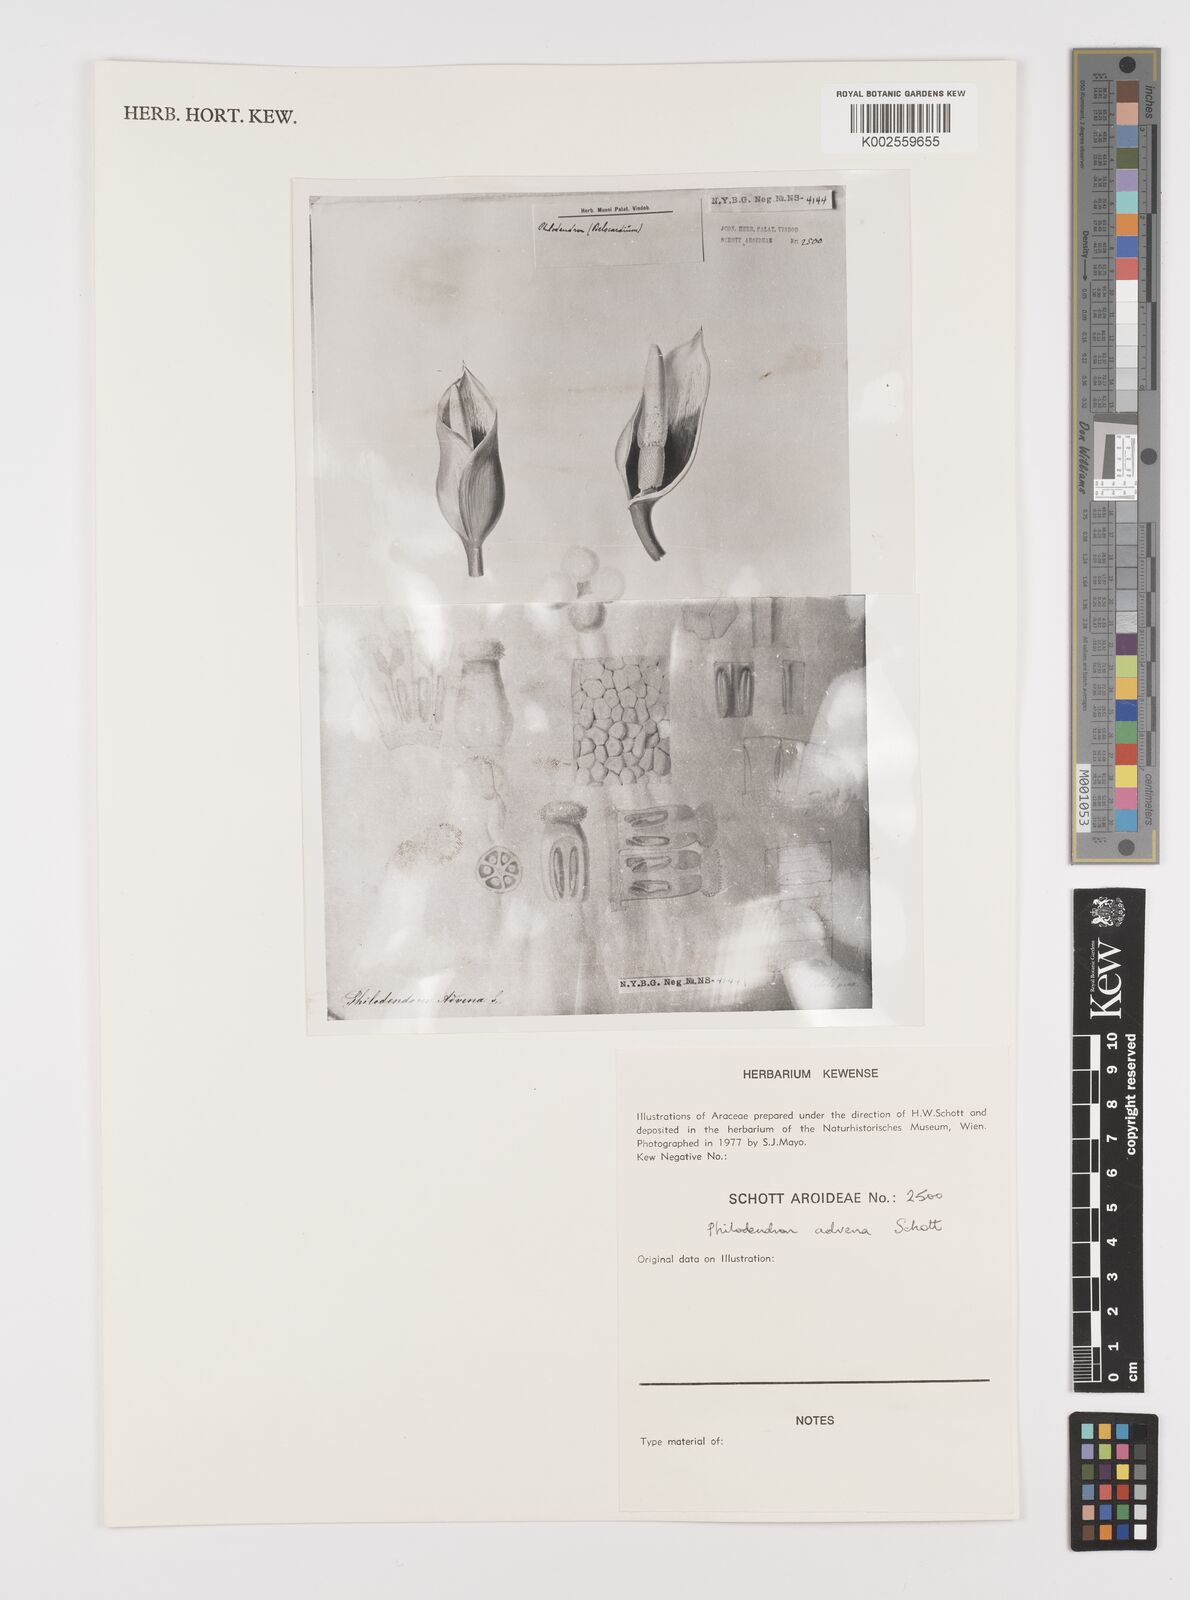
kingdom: Plantae
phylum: Tracheophyta
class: Liliopsida
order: Alismatales
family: Araceae
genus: Philodendron
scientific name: Philodendron advena
